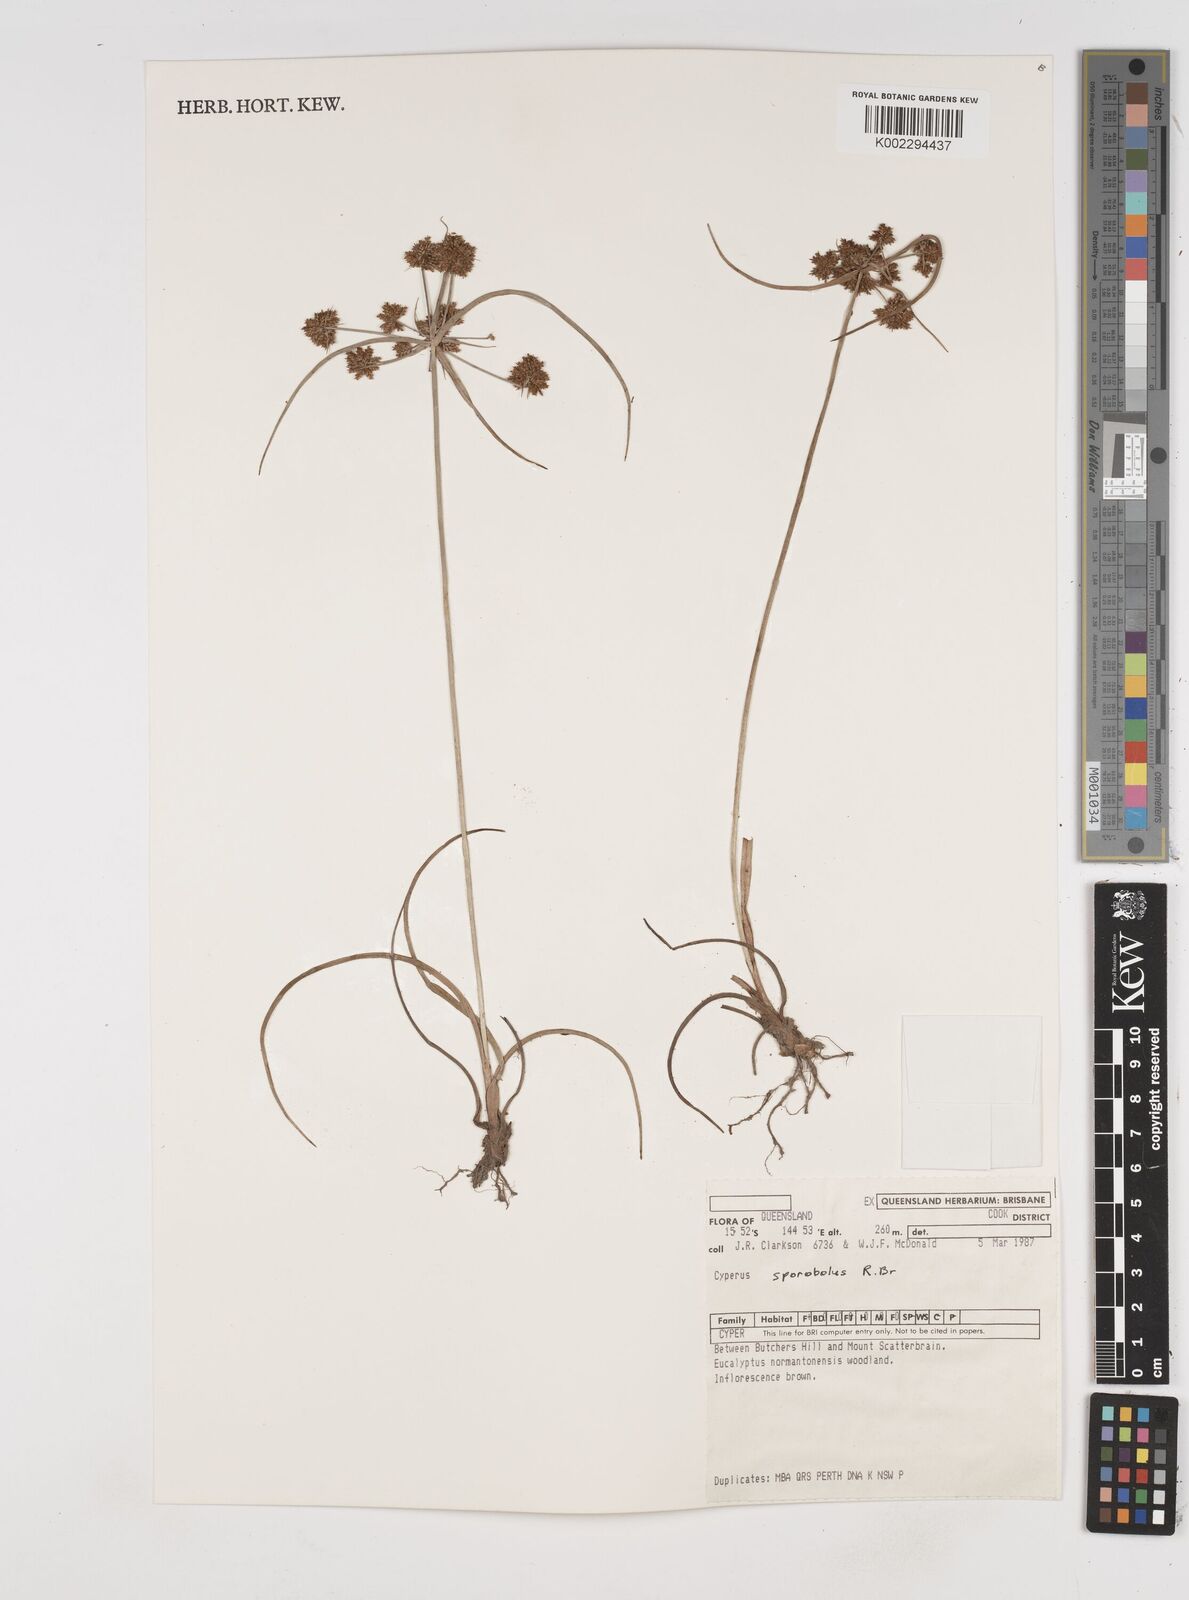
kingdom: Plantae
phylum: Tracheophyta
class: Liliopsida
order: Poales
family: Cyperaceae
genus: Cyperus
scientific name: Cyperus sporobolus
